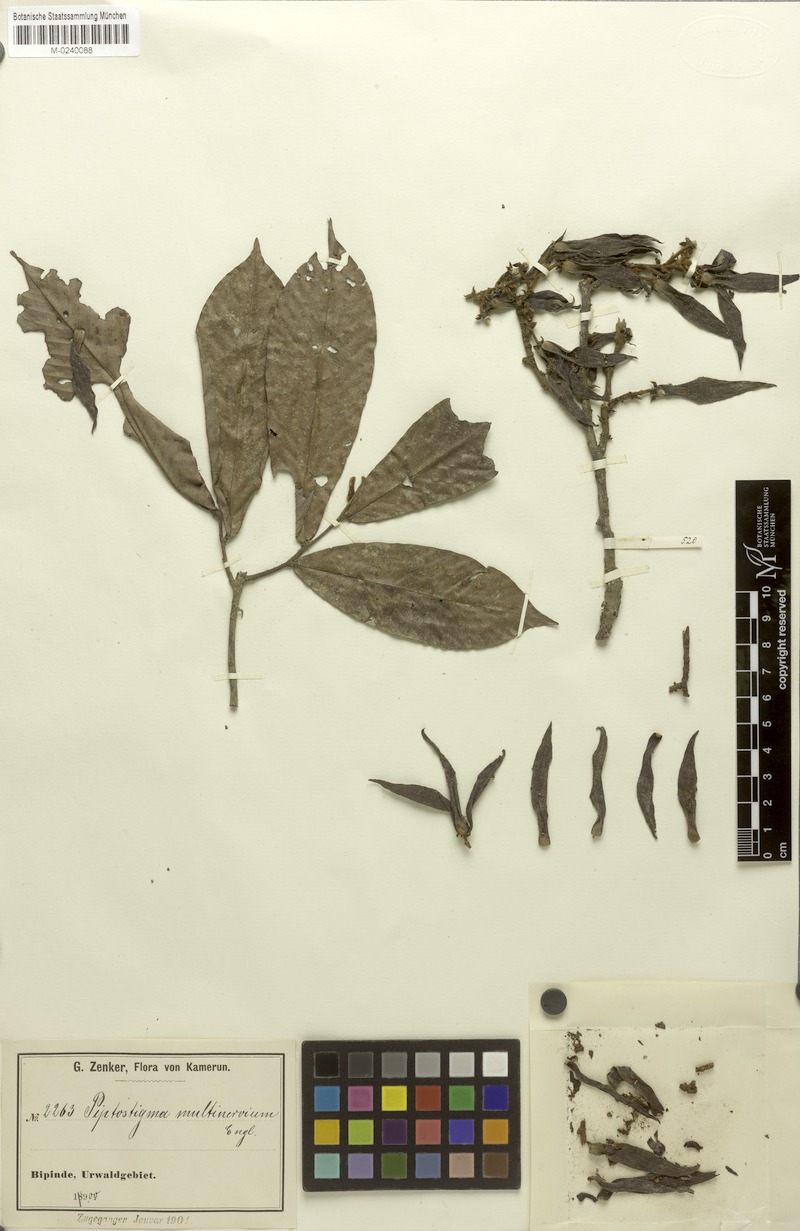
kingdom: Plantae
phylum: Tracheophyta
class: Magnoliopsida
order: Magnoliales
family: Annonaceae
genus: Piptostigma
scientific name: Piptostigma multinervium
